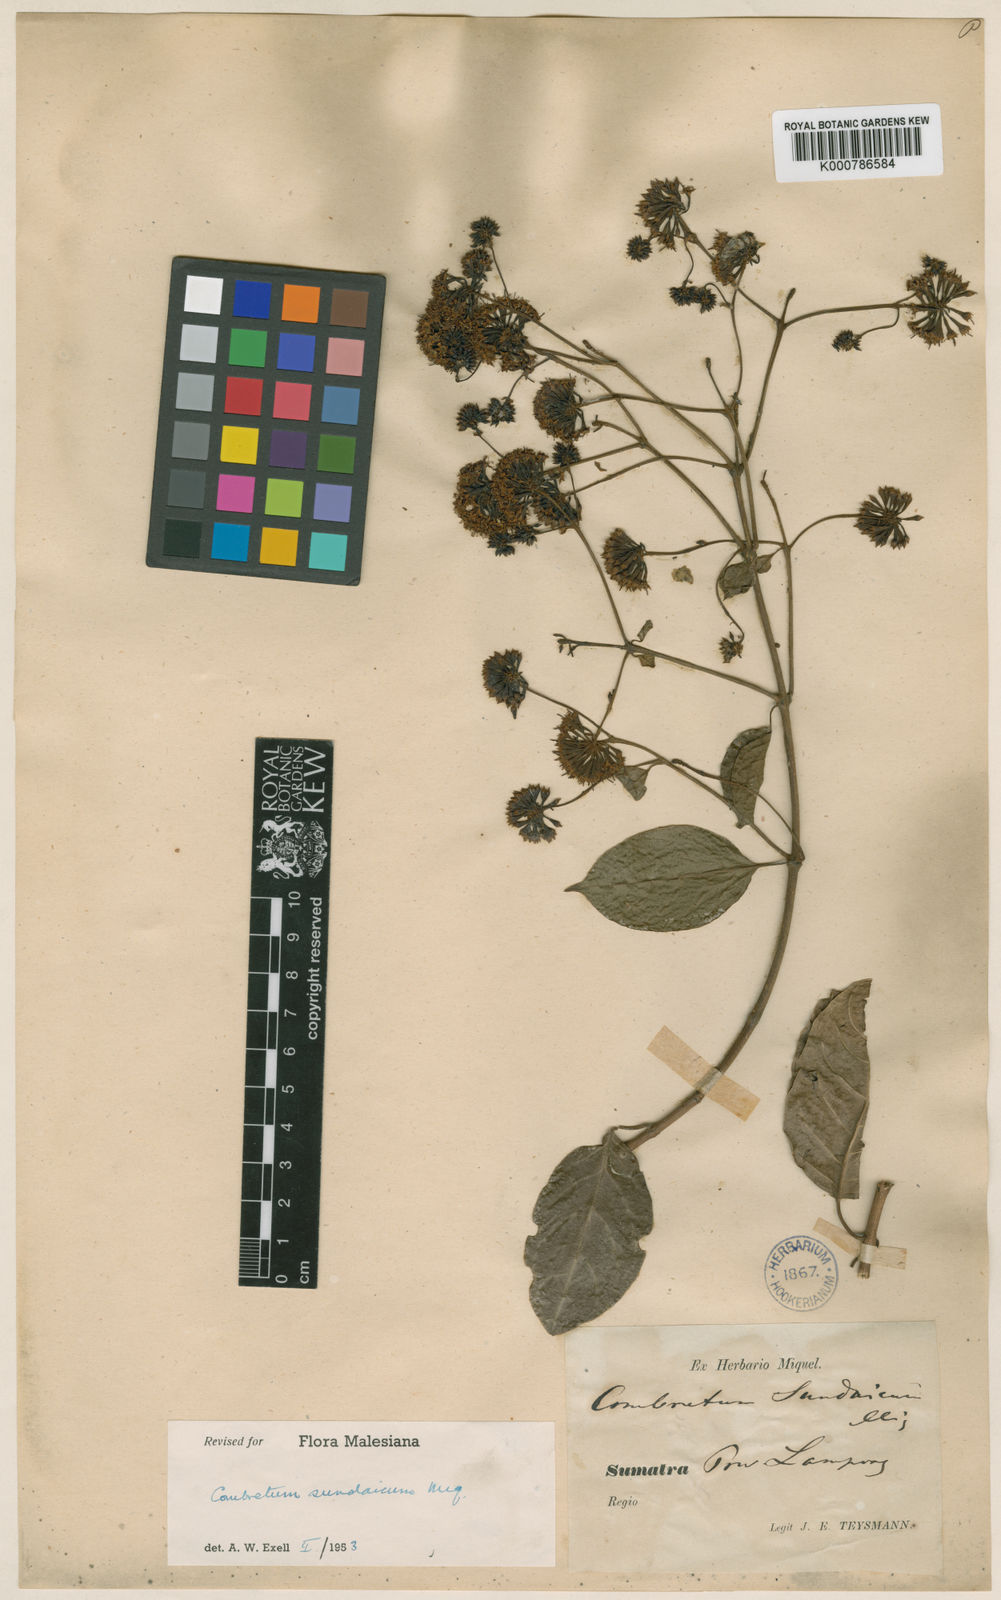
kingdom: Plantae
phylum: Tracheophyta
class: Magnoliopsida
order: Myrtales
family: Combretaceae
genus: Combretum
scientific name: Combretum sundaicum
